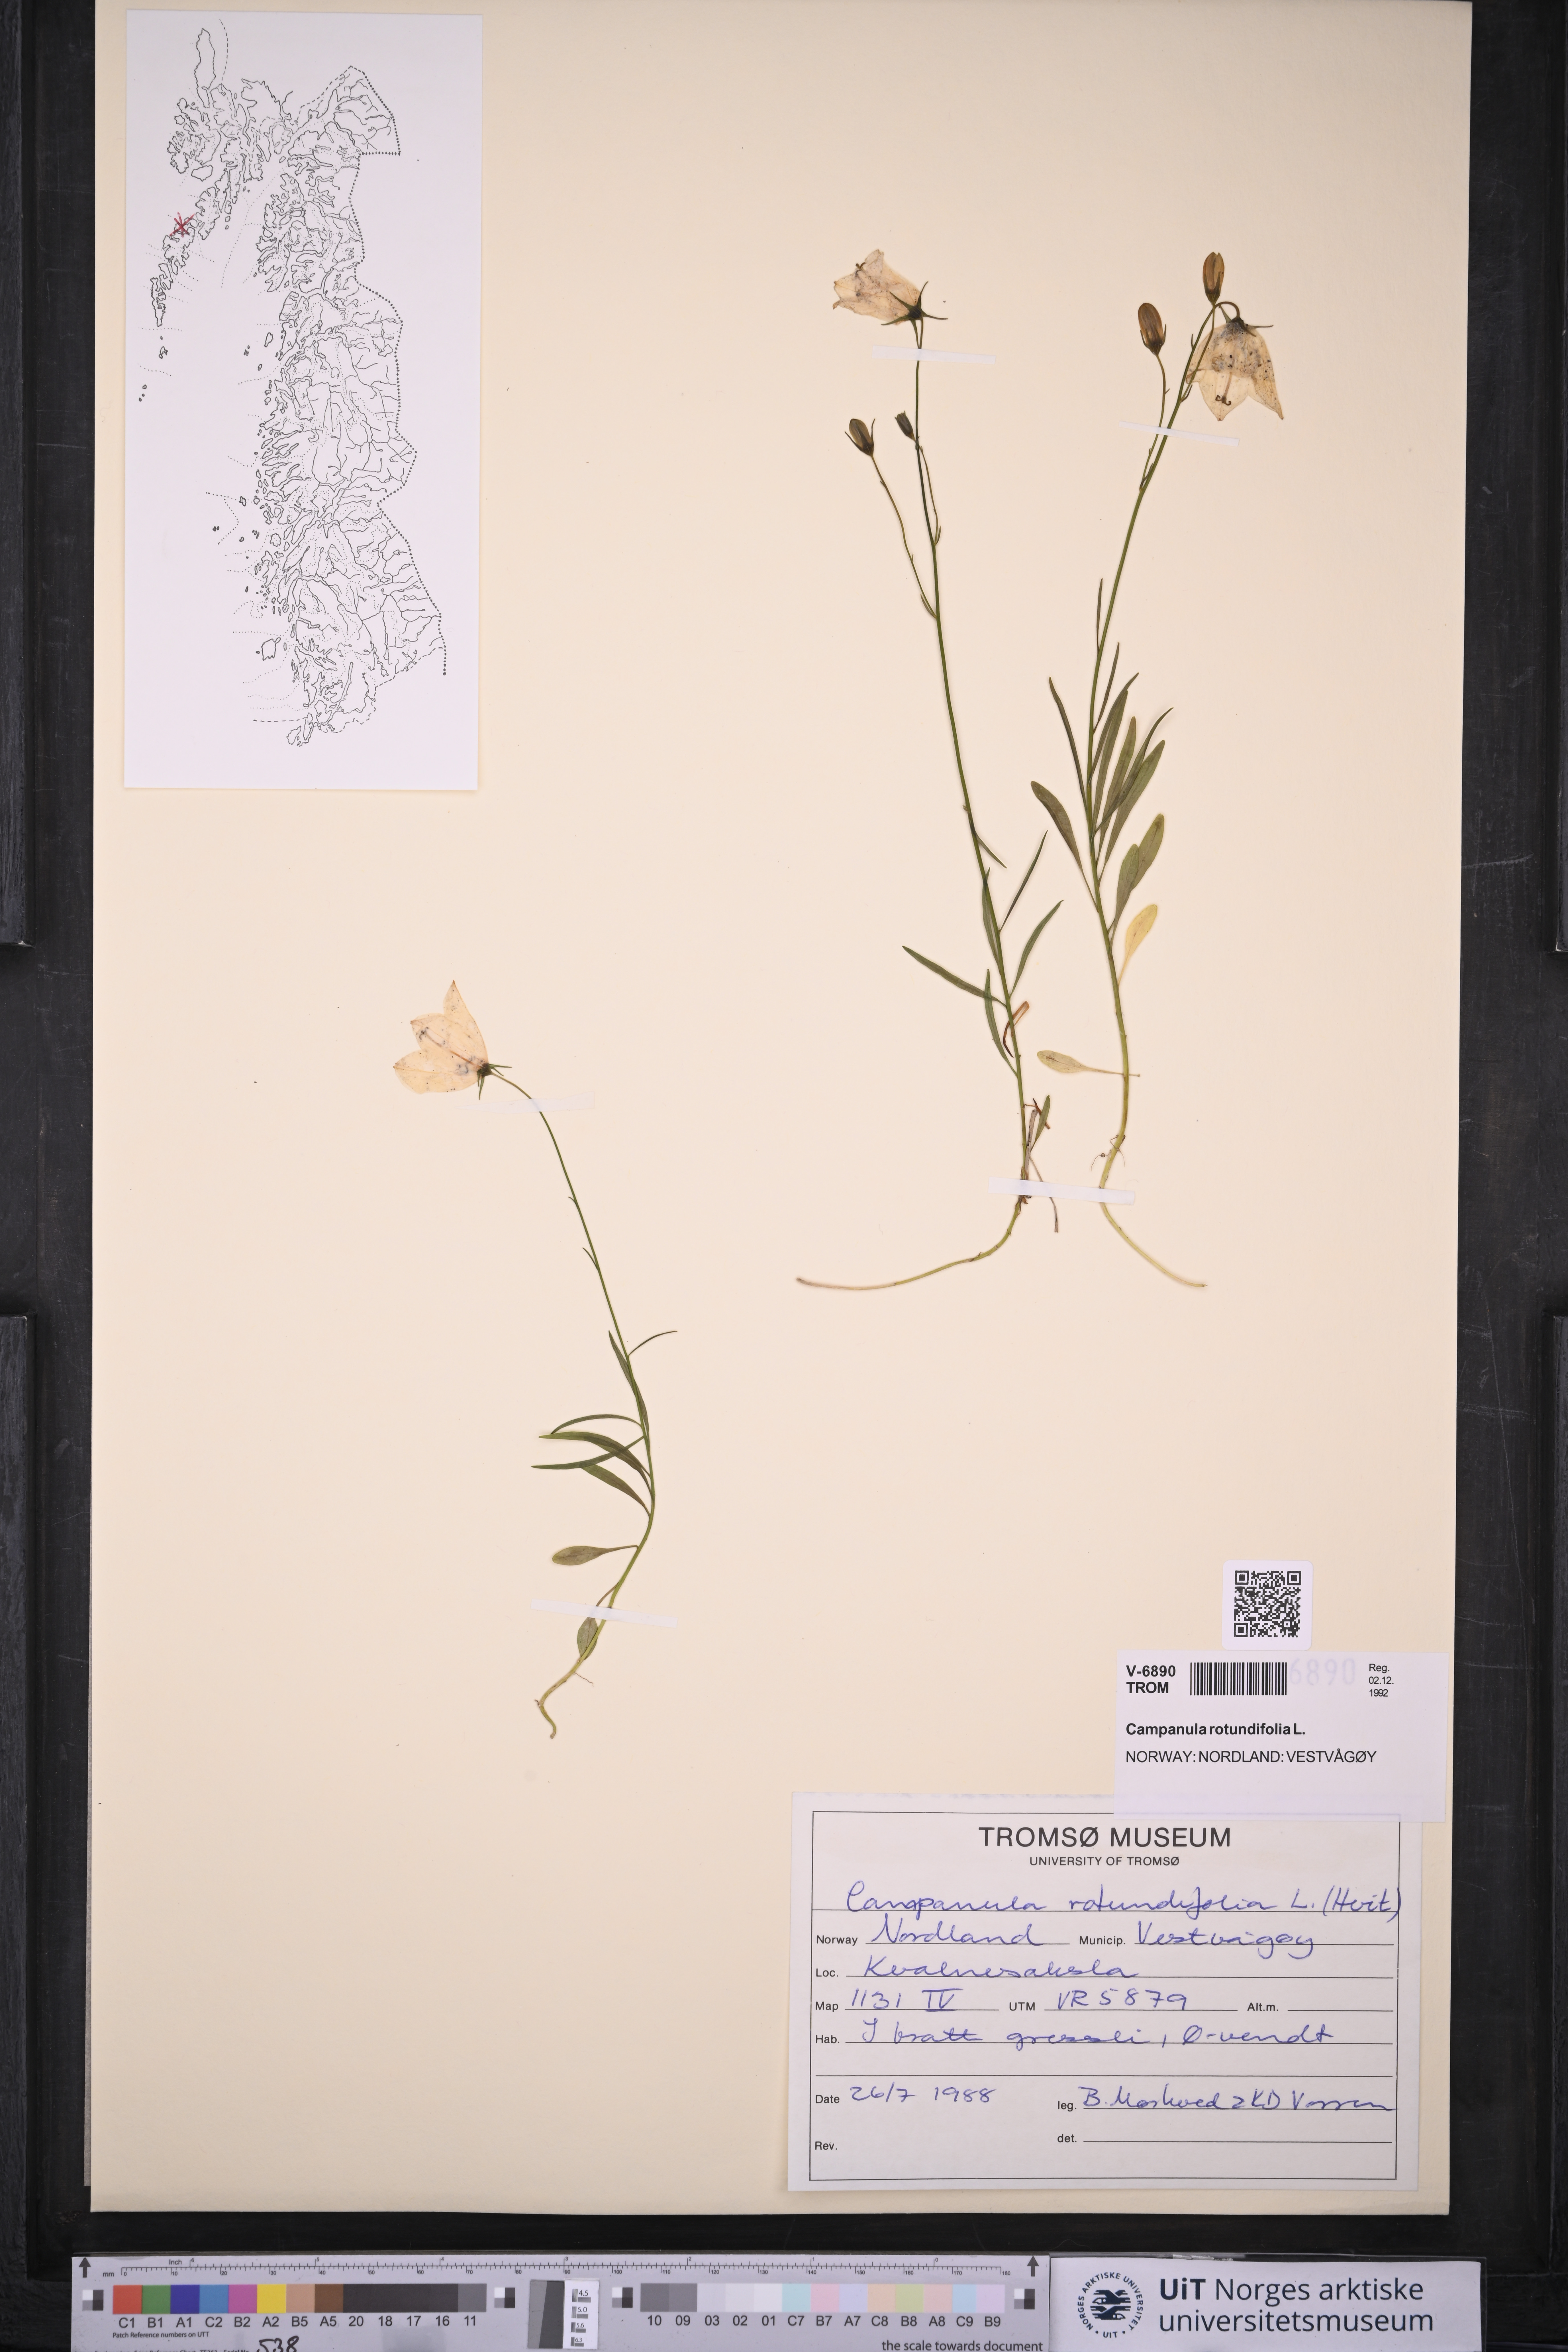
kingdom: Plantae
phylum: Tracheophyta
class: Magnoliopsida
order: Asterales
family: Campanulaceae
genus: Campanula
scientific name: Campanula rotundifolia
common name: Harebell
